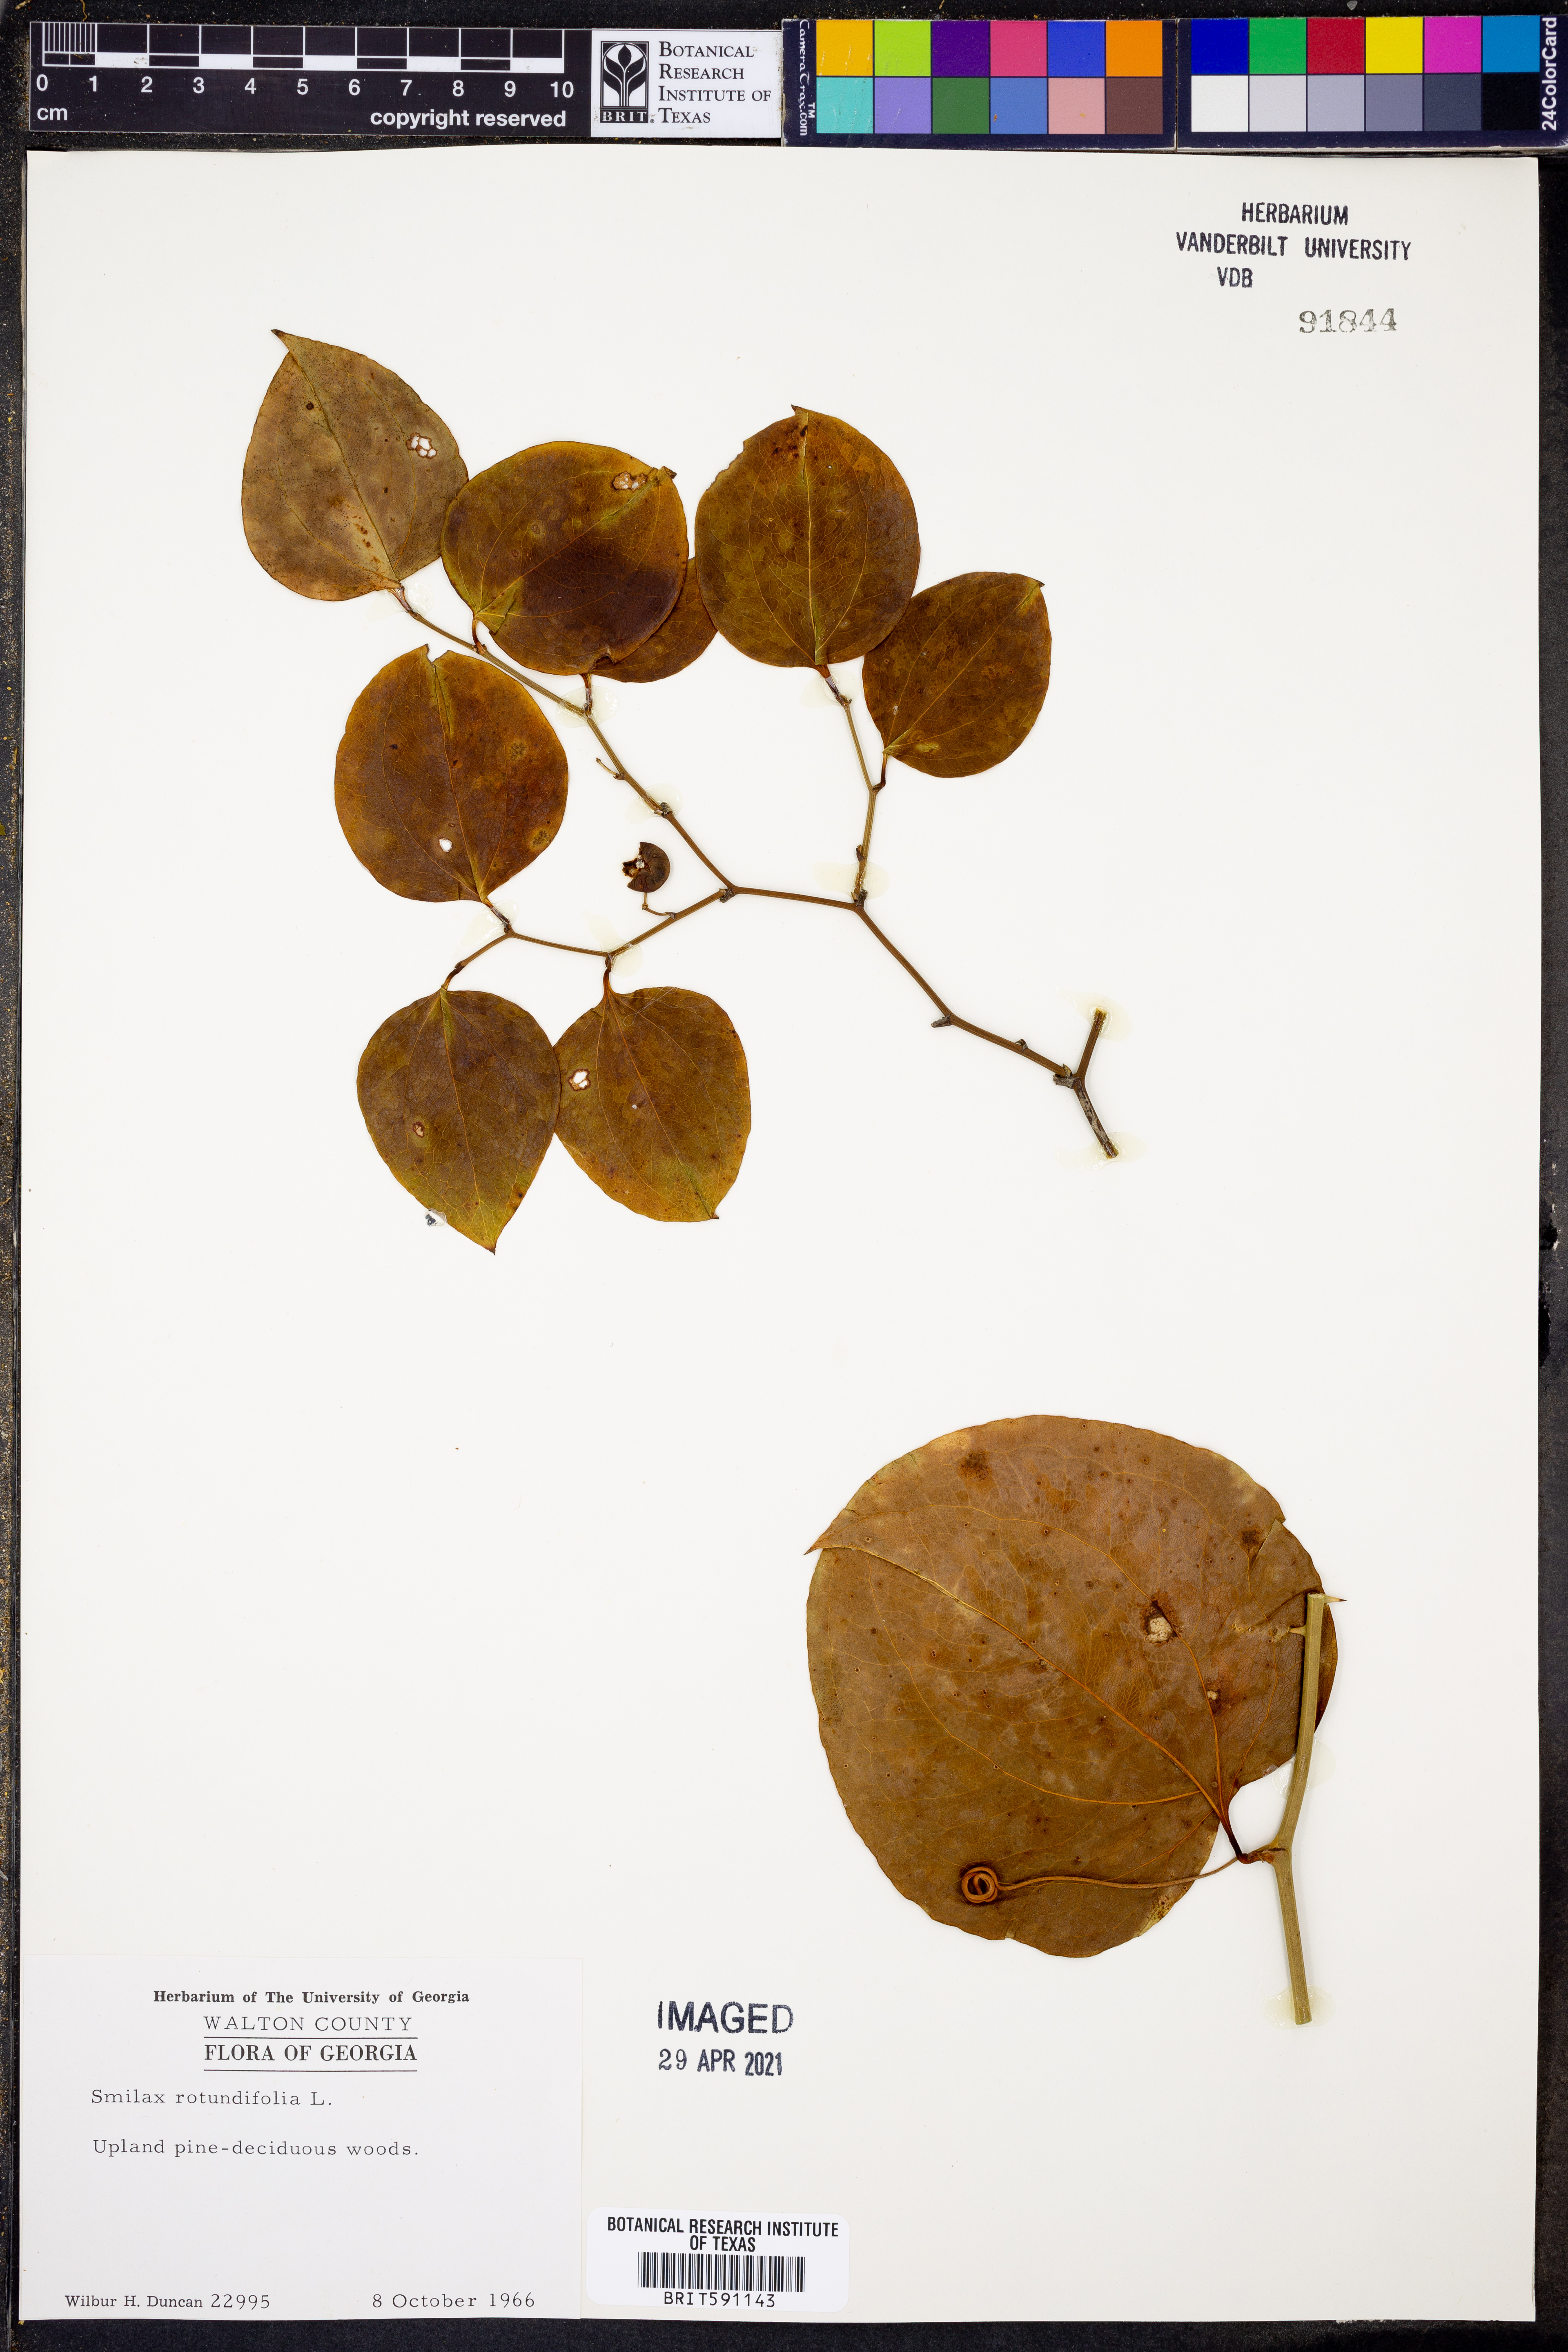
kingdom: Plantae
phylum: Tracheophyta
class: Liliopsida
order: Liliales
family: Smilacaceae
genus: Smilax
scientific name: Smilax rotundifolia
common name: Bullbriar
